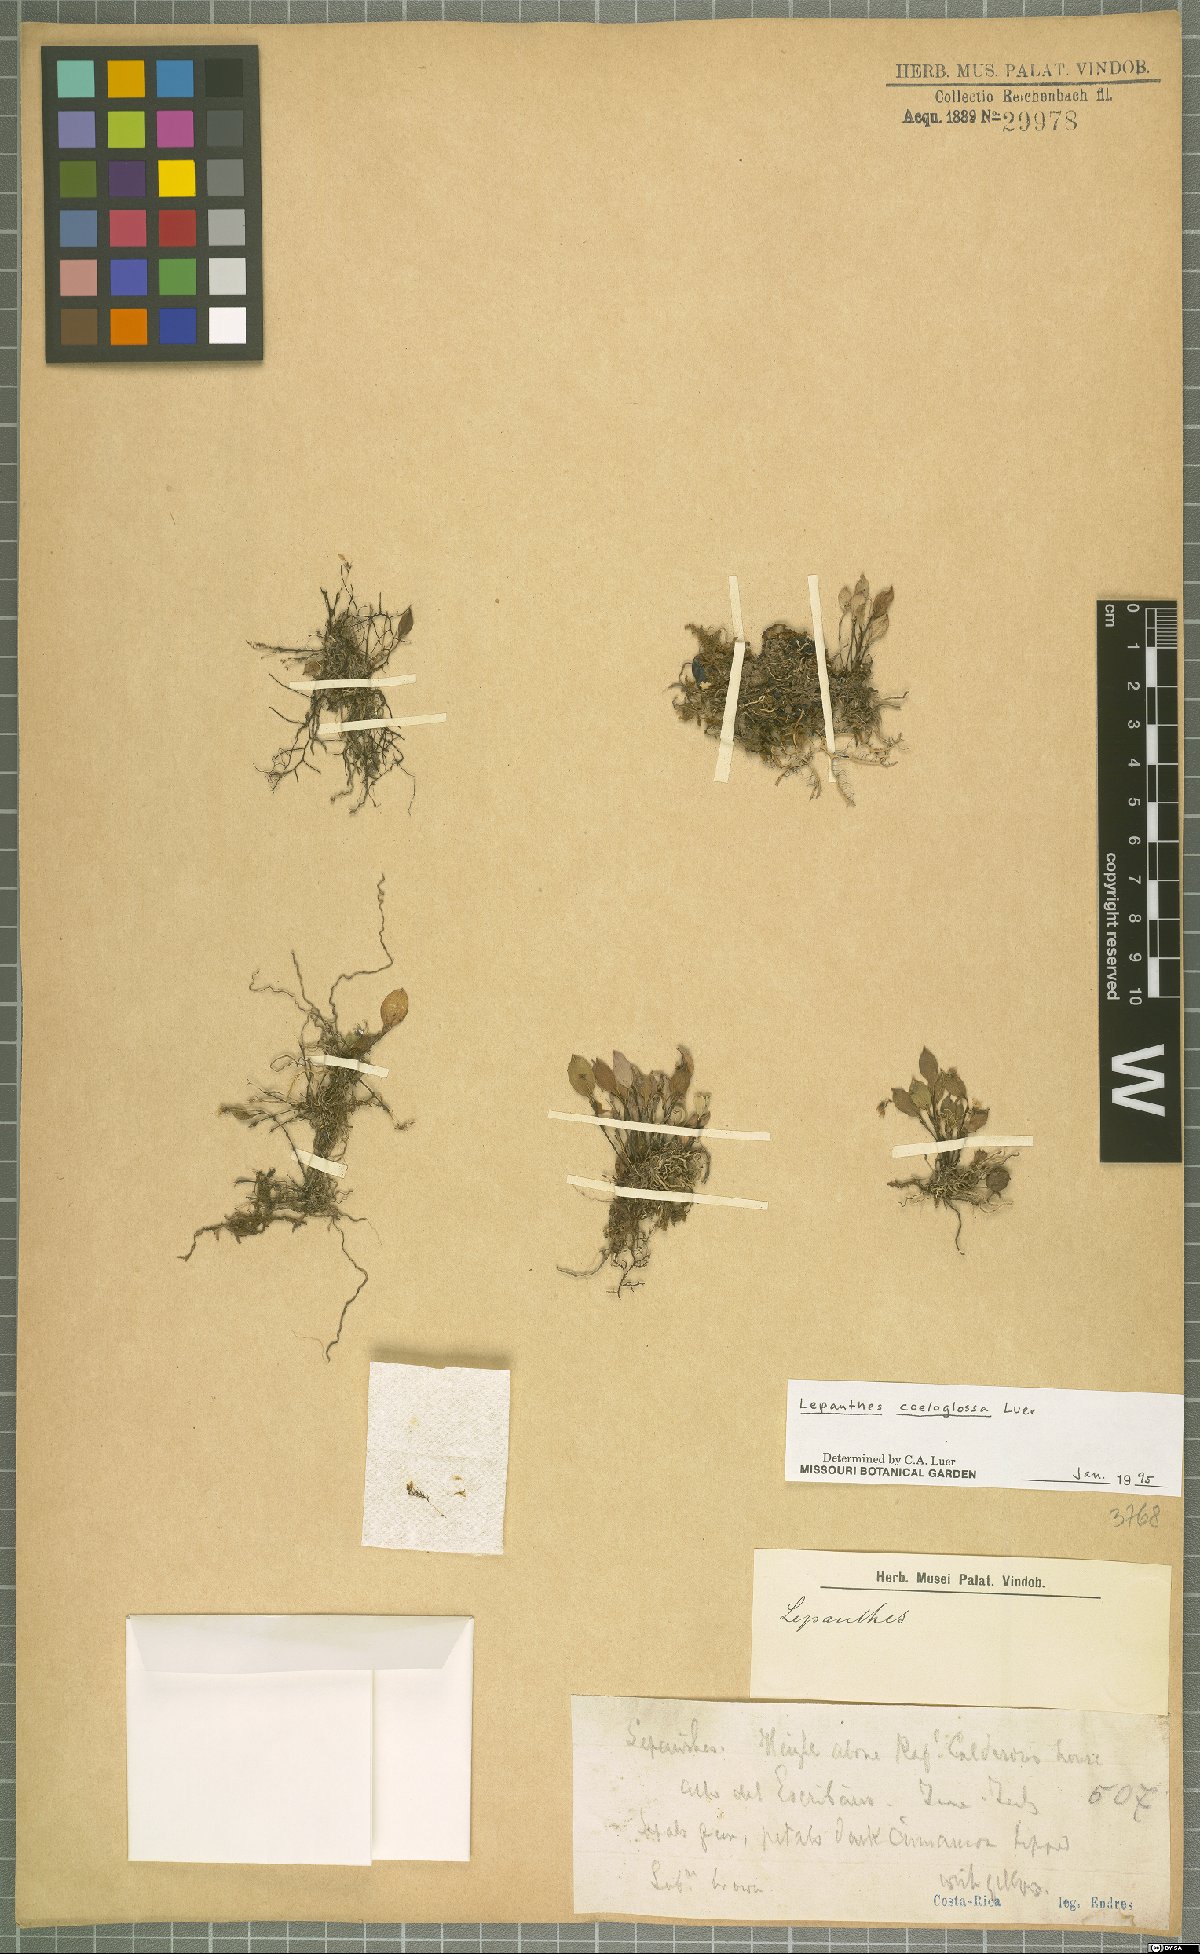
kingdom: Plantae
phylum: Tracheophyta
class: Liliopsida
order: Asparagales
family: Orchidaceae
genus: Lepanthes
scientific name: Lepanthes coeloglossa
